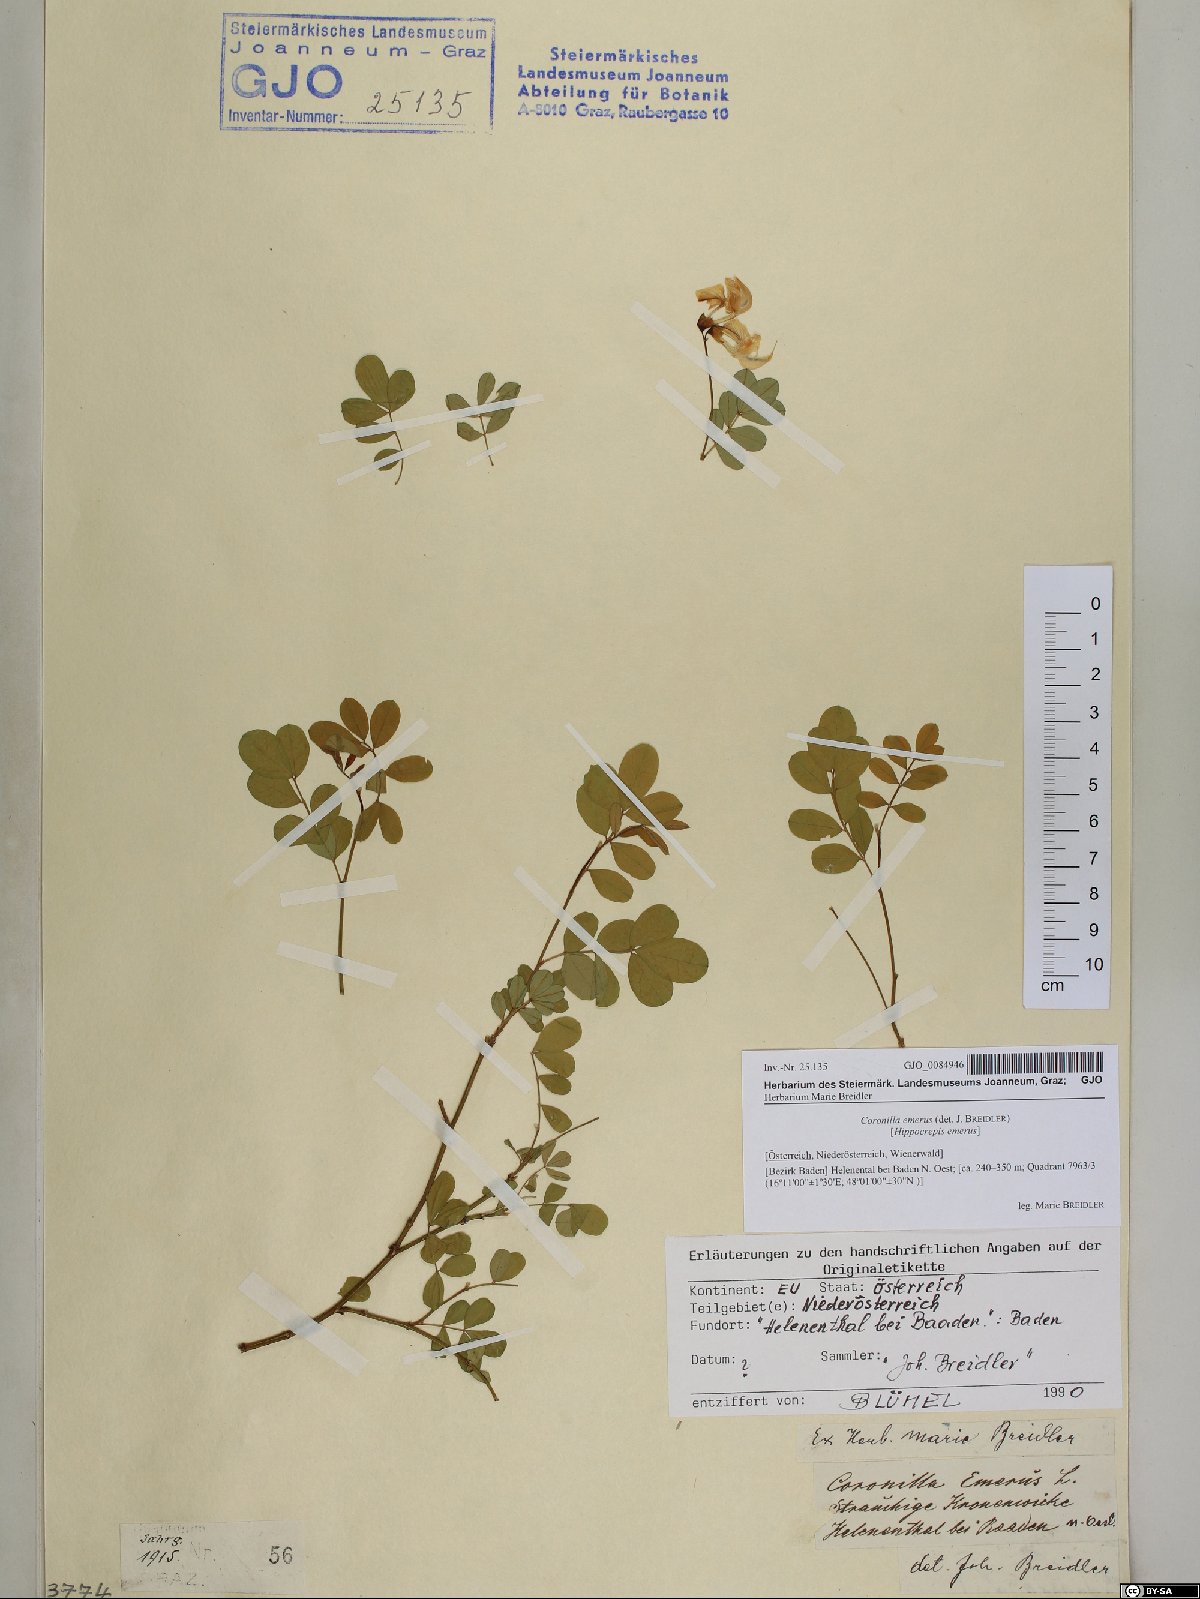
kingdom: Plantae
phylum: Tracheophyta
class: Magnoliopsida
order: Fabales
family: Fabaceae
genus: Hippocrepis
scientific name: Hippocrepis emerus
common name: Scorpion senna
